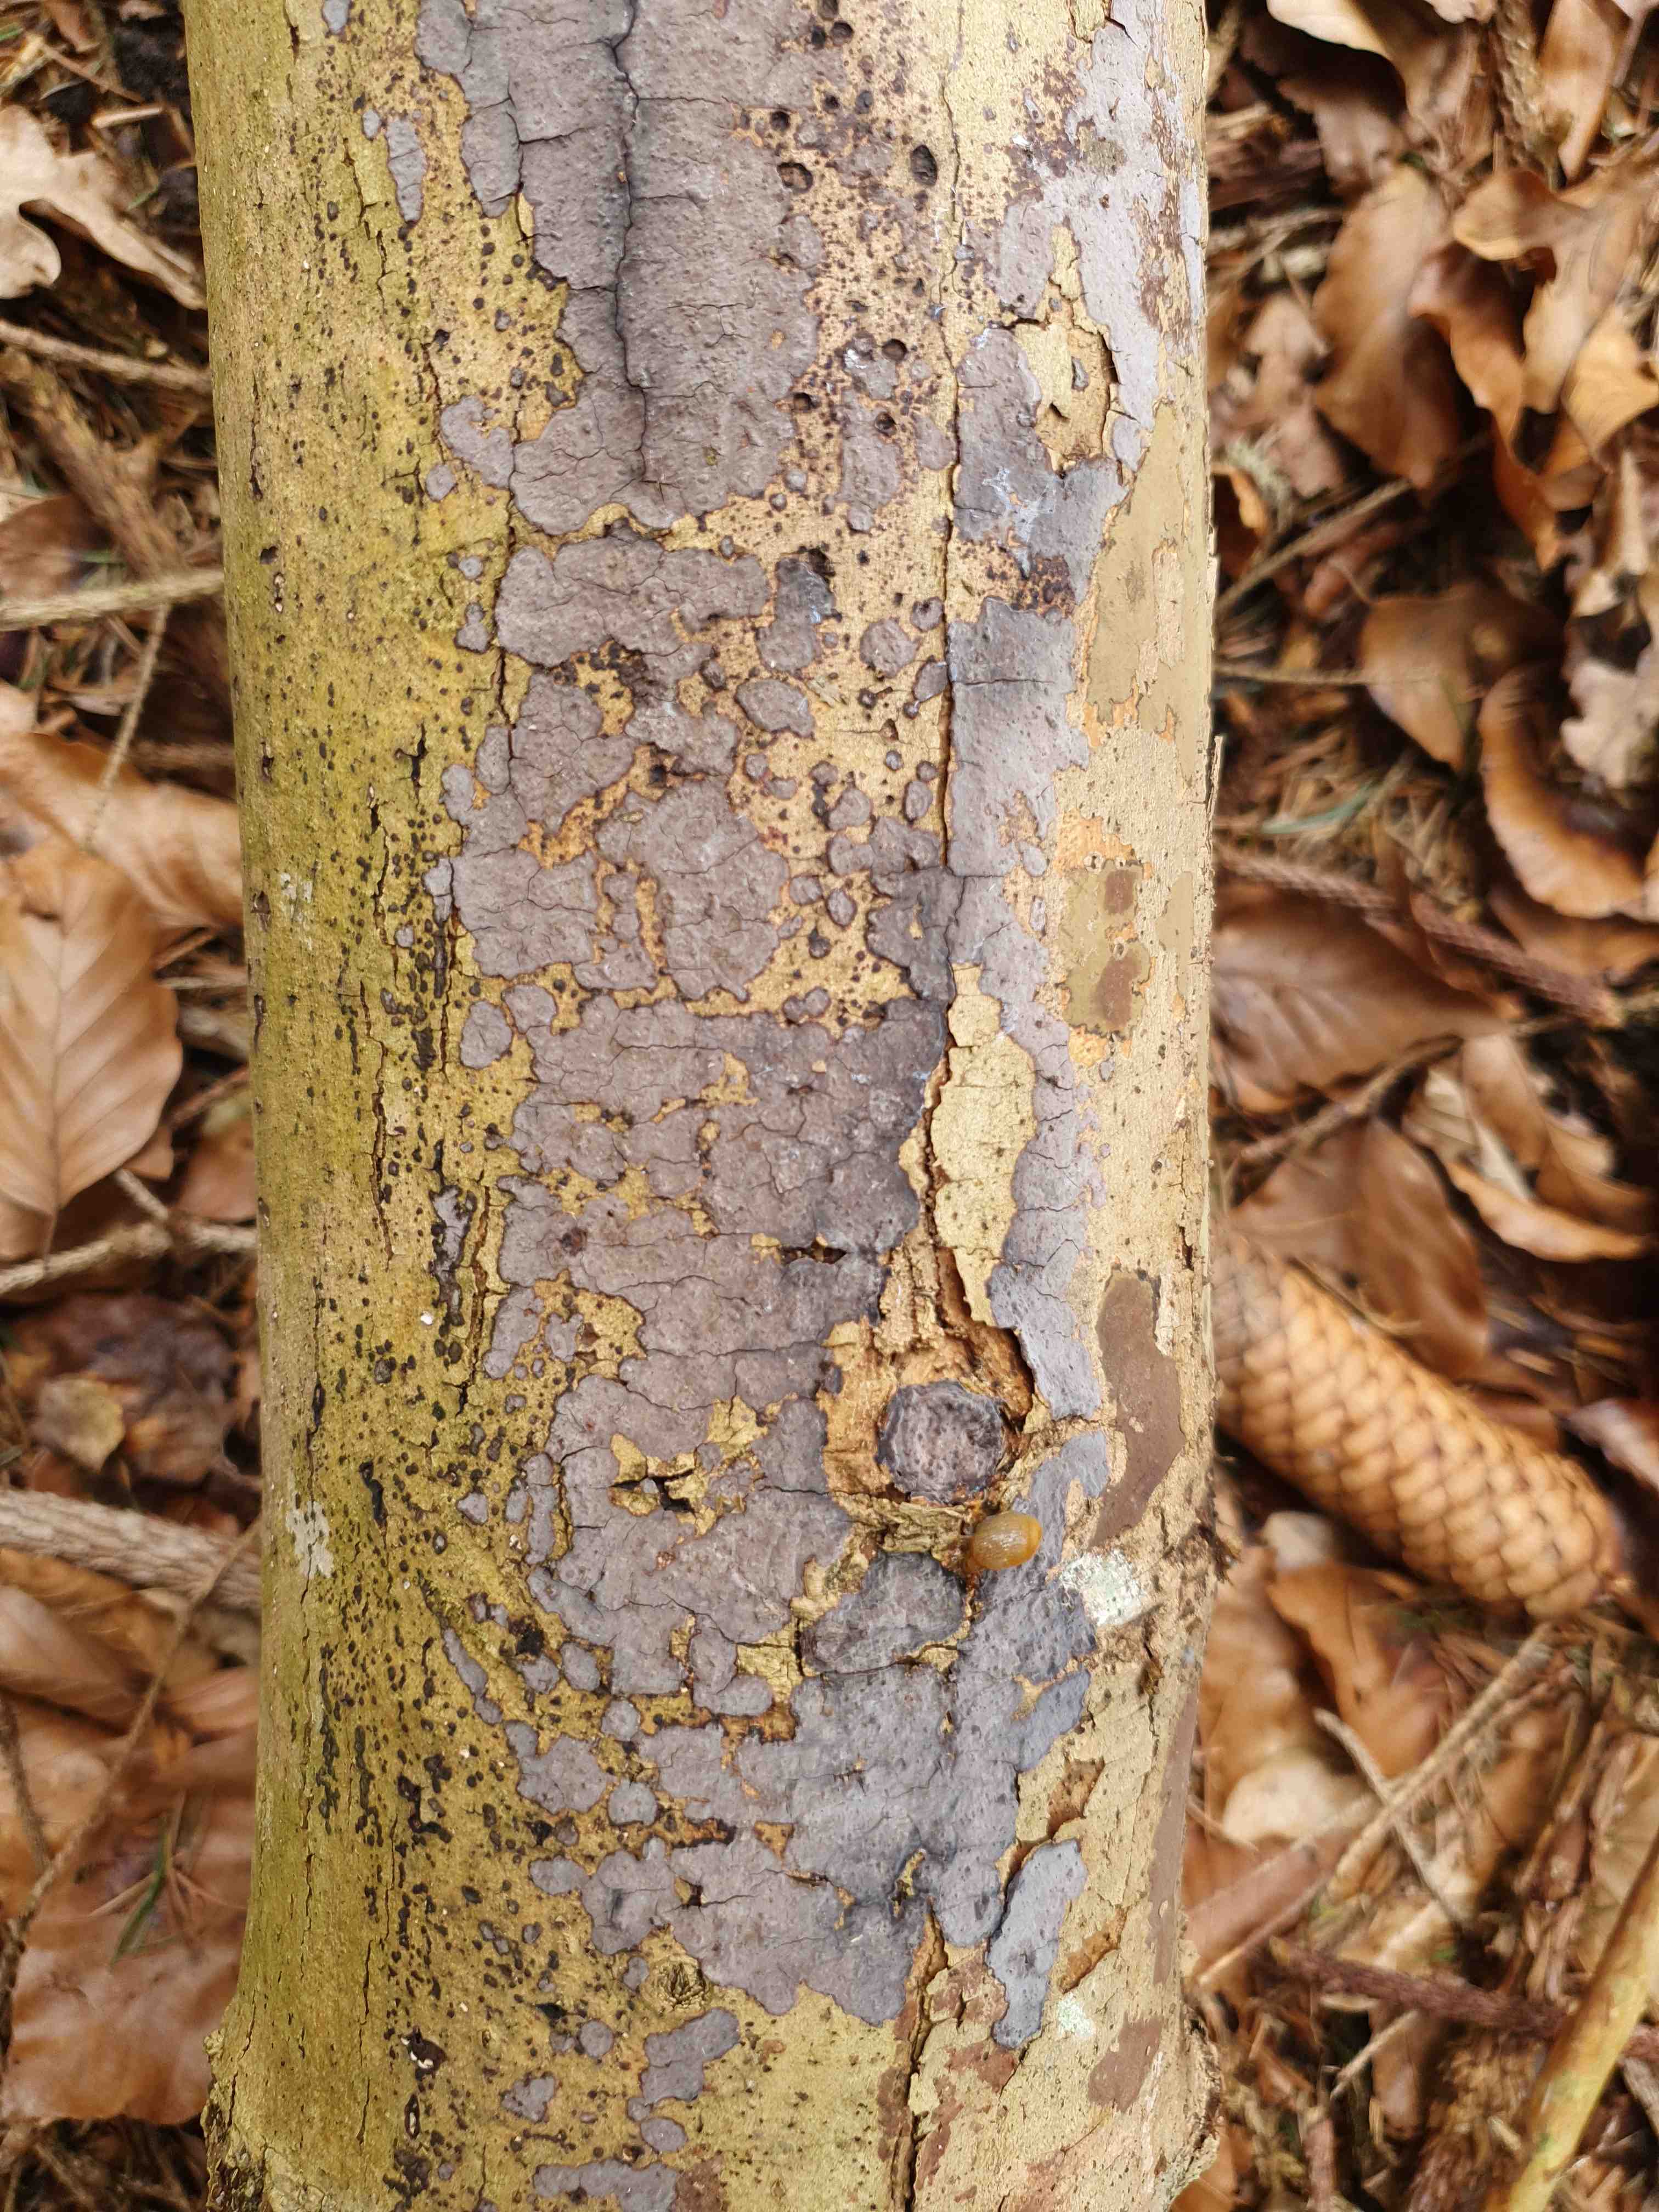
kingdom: Fungi
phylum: Basidiomycota
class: Agaricomycetes
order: Russulales
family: Peniophoraceae
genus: Peniophora
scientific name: Peniophora limitata
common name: mørkrandet voksskind
